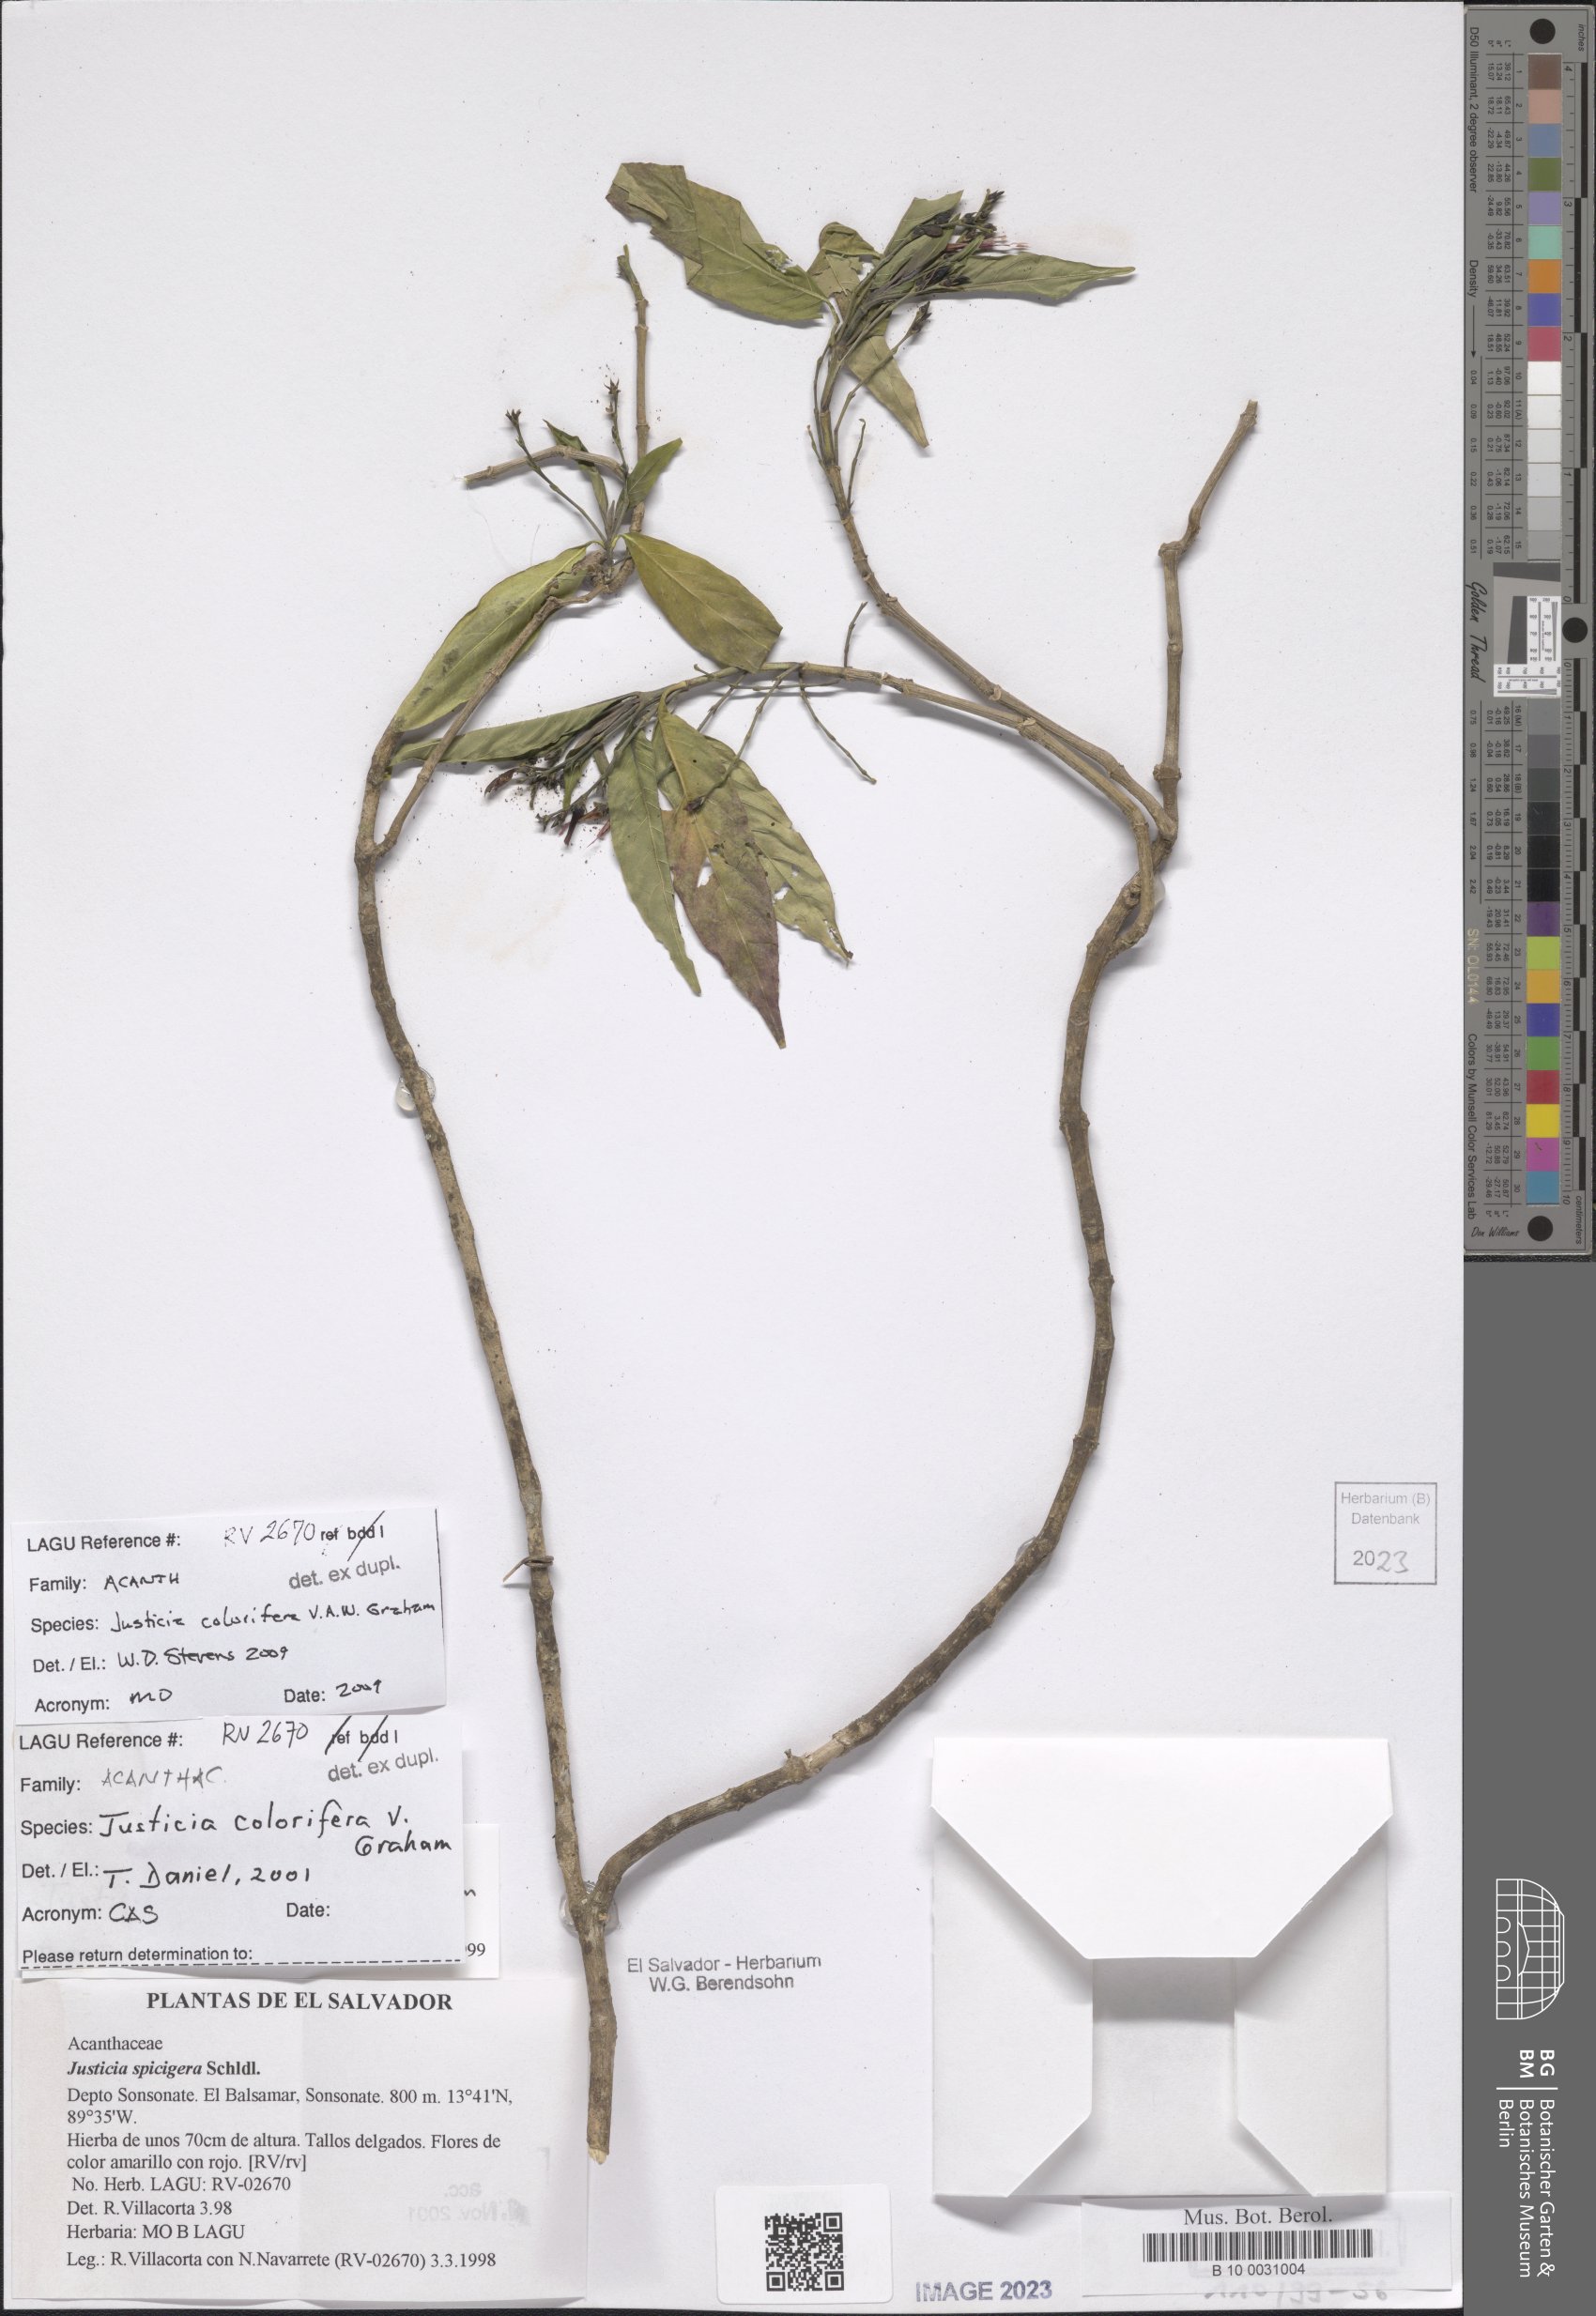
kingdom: Plantae
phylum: Tracheophyta
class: Magnoliopsida
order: Lamiales
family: Acanthaceae
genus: Justicia
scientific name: Justicia tinctoriella
